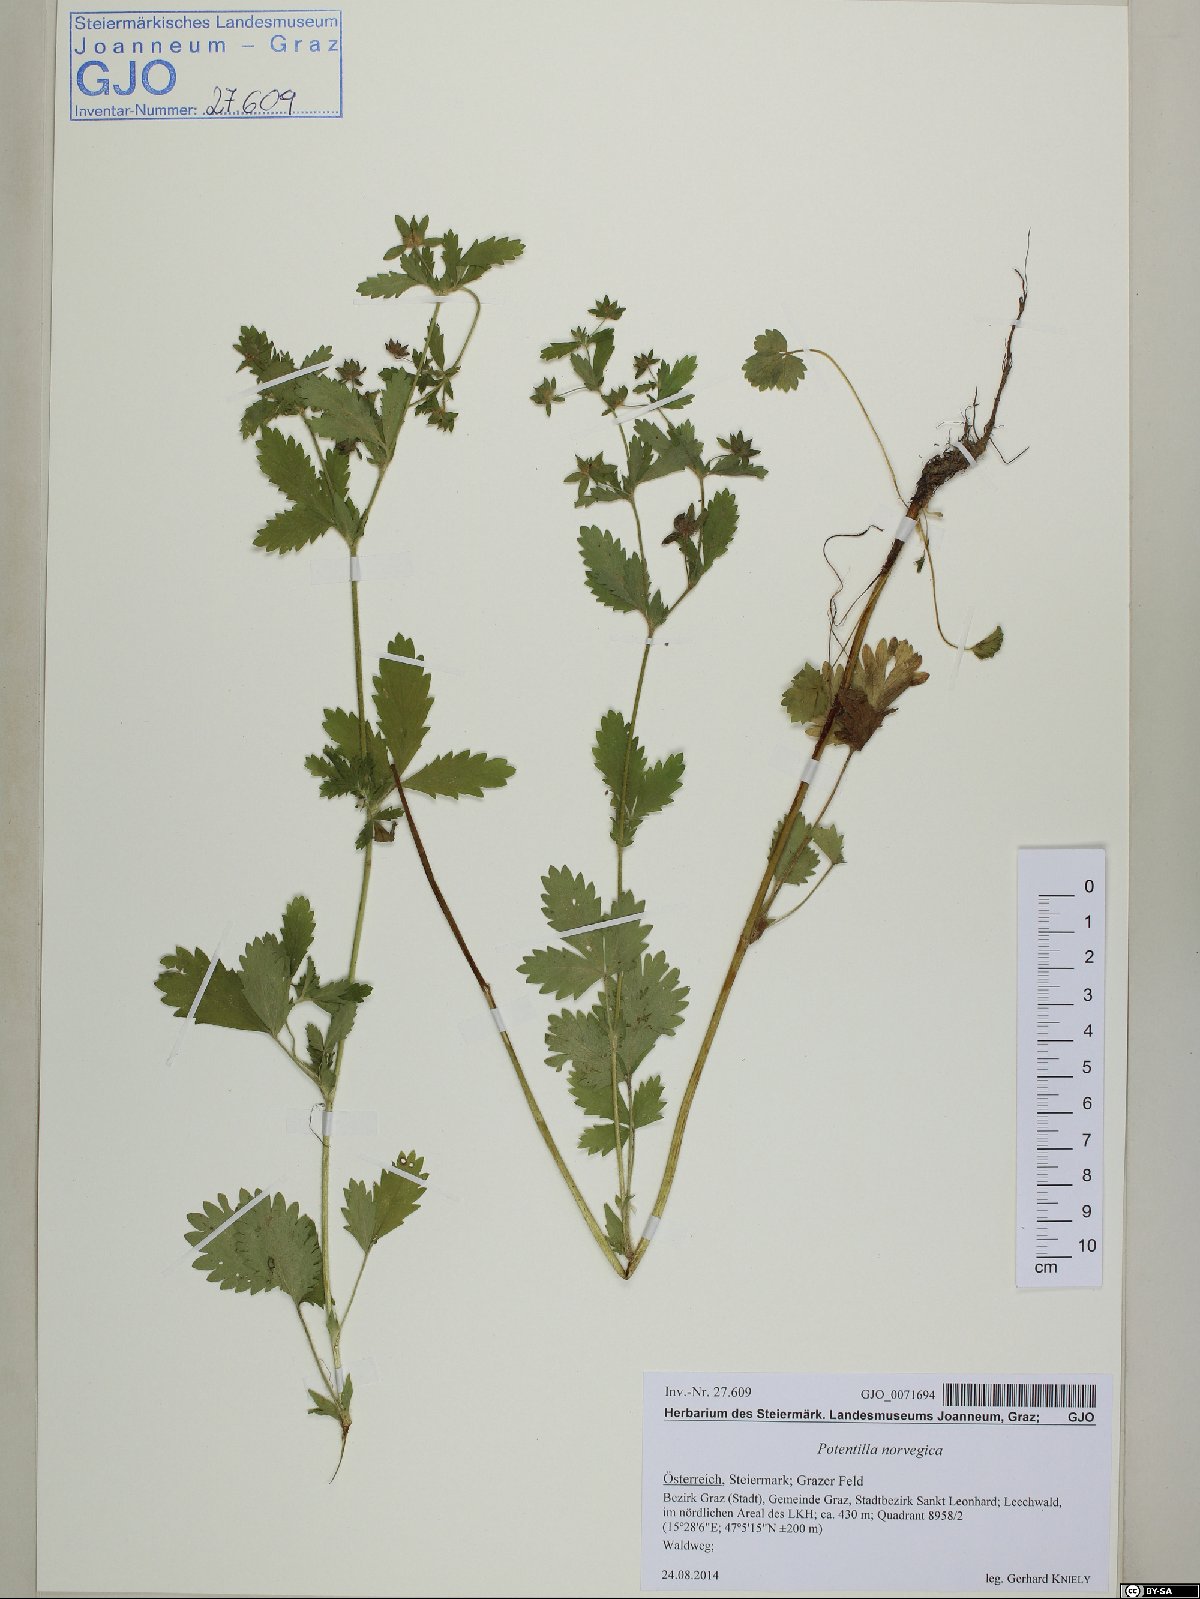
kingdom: Plantae
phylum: Tracheophyta
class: Magnoliopsida
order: Rosales
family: Rosaceae
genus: Potentilla
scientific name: Potentilla norvegica
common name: Ternate-leaved cinquefoil
